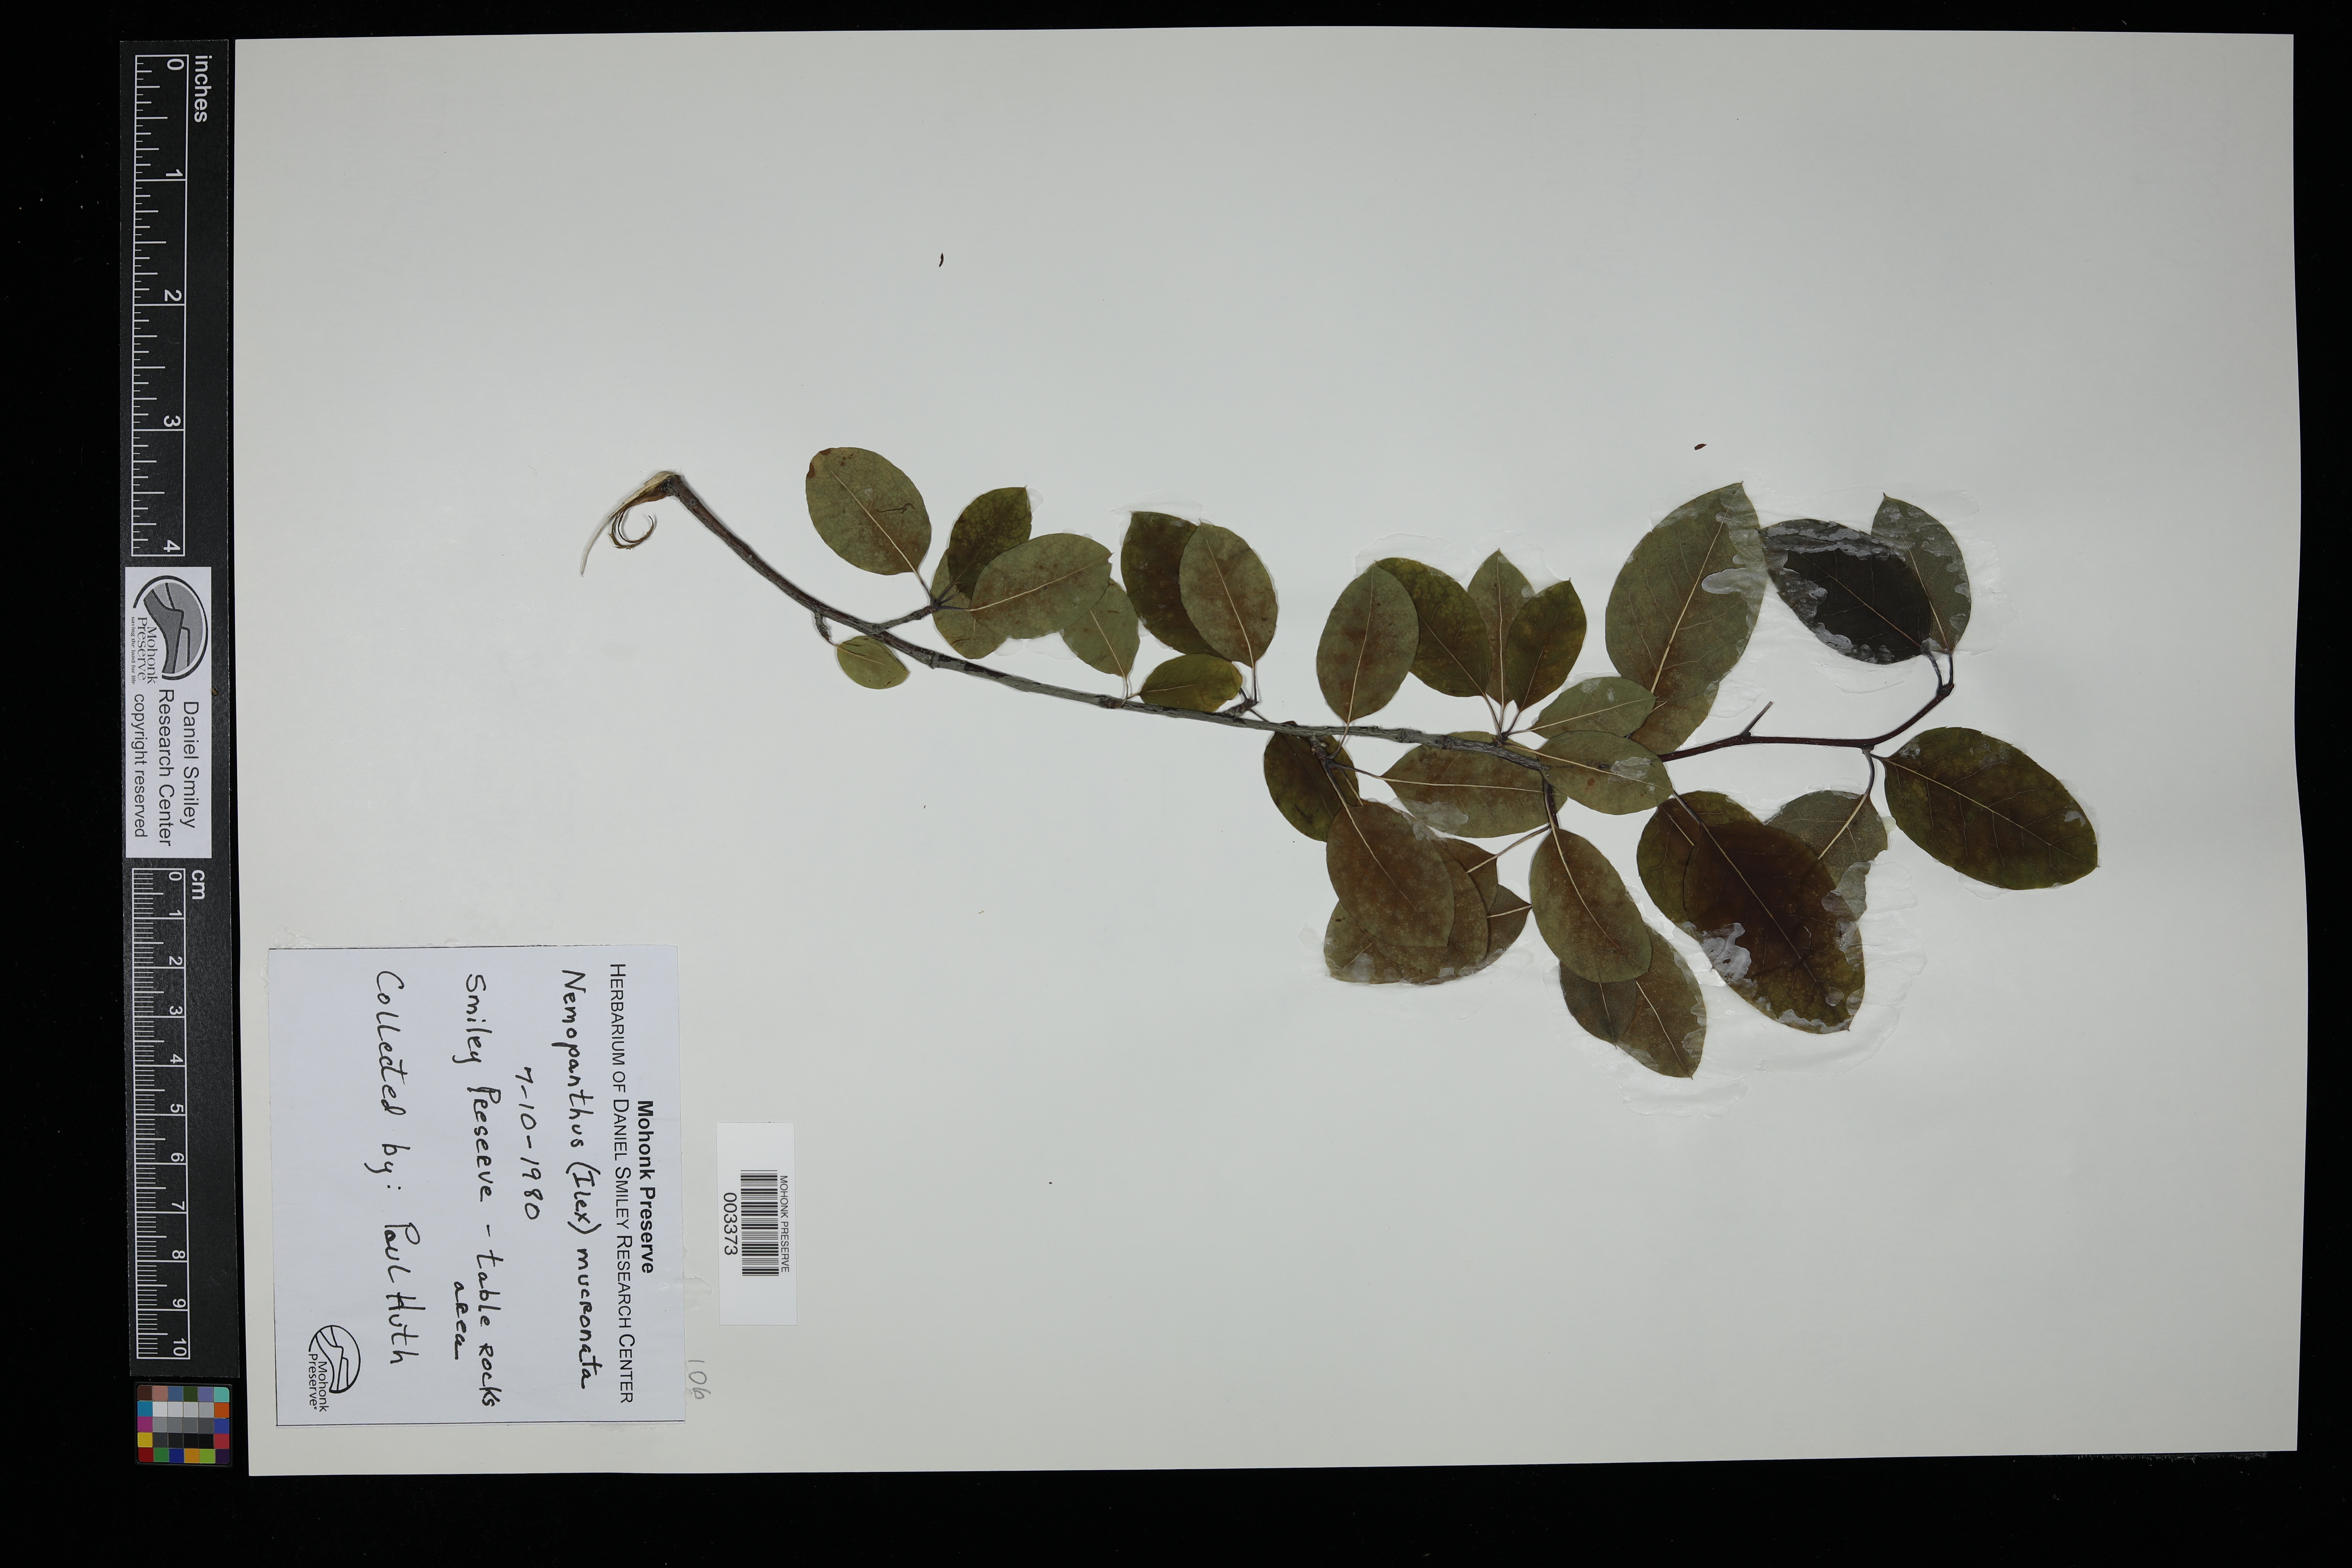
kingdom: Plantae
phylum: Tracheophyta
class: Magnoliopsida
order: Aquifoliales
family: Aquifoliaceae
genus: Ilex
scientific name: Ilex mucronata
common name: Catberry
